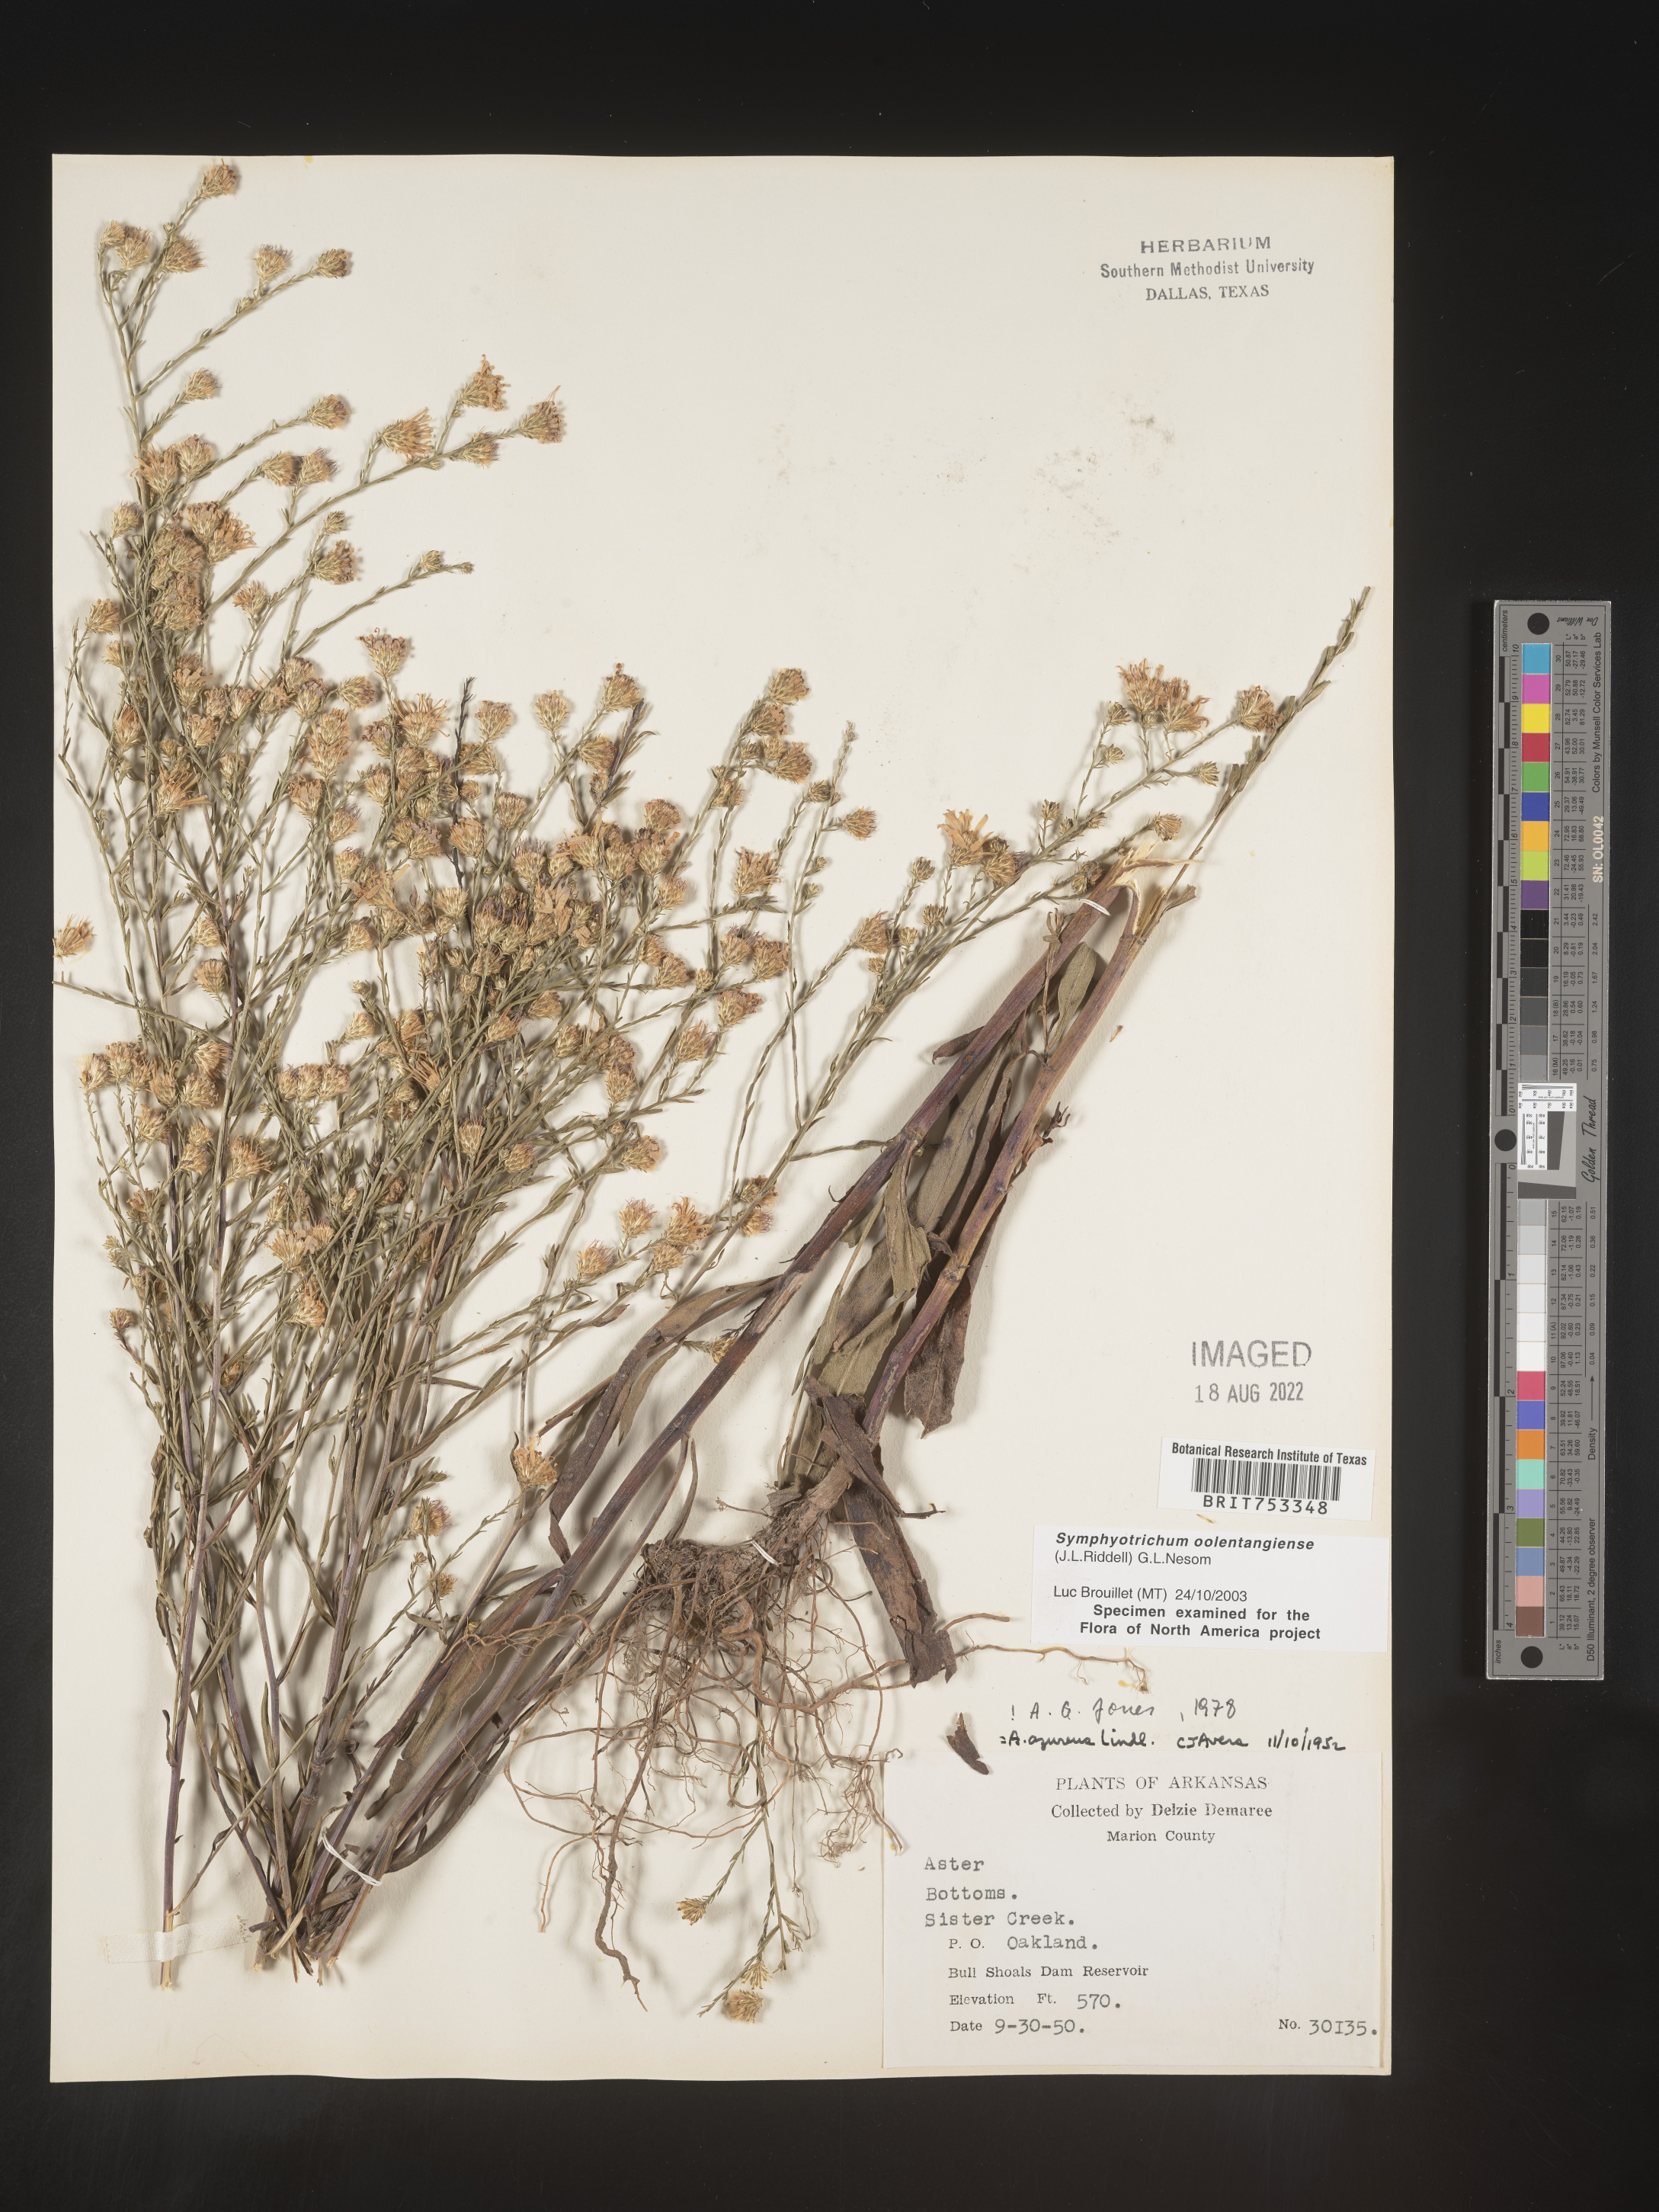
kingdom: Plantae
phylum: Tracheophyta
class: Magnoliopsida
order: Asterales
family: Asteraceae
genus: Symphyotrichum
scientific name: Symphyotrichum oolentangiense
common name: Azure aster
